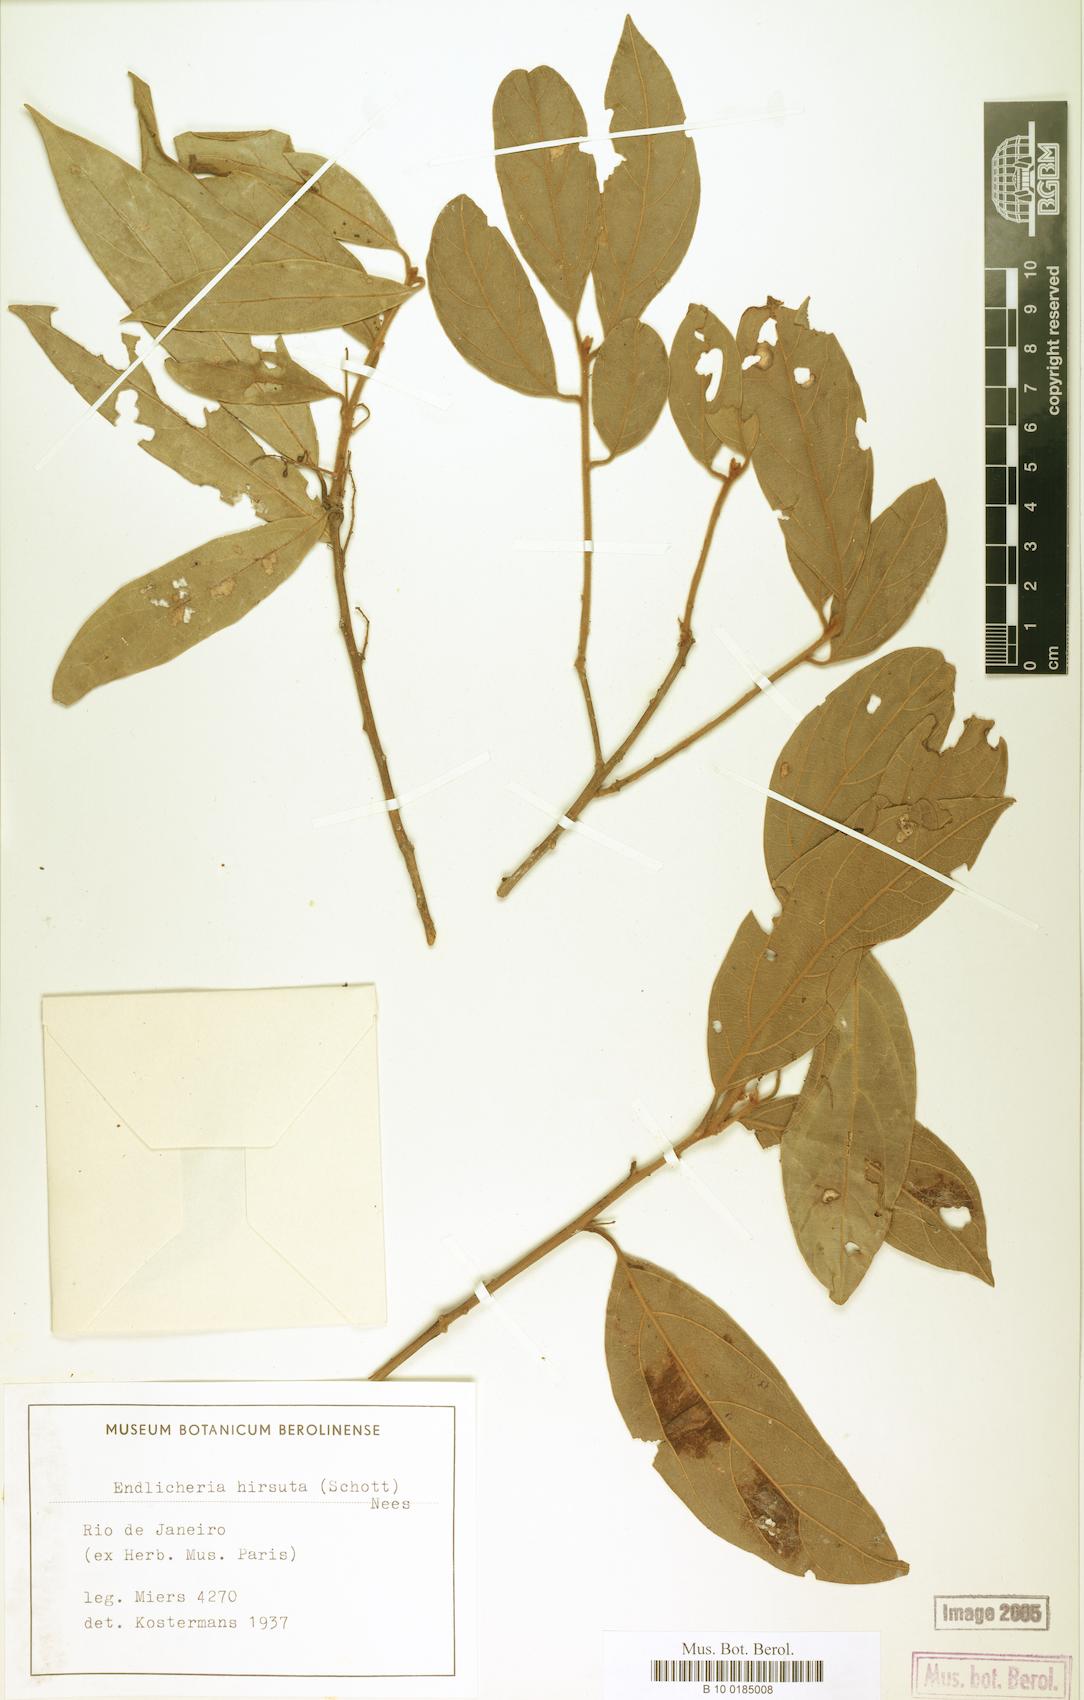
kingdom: Plantae
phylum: Tracheophyta
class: Magnoliopsida
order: Laurales
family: Lauraceae
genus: Endlicheria
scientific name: Endlicheria paniculata
